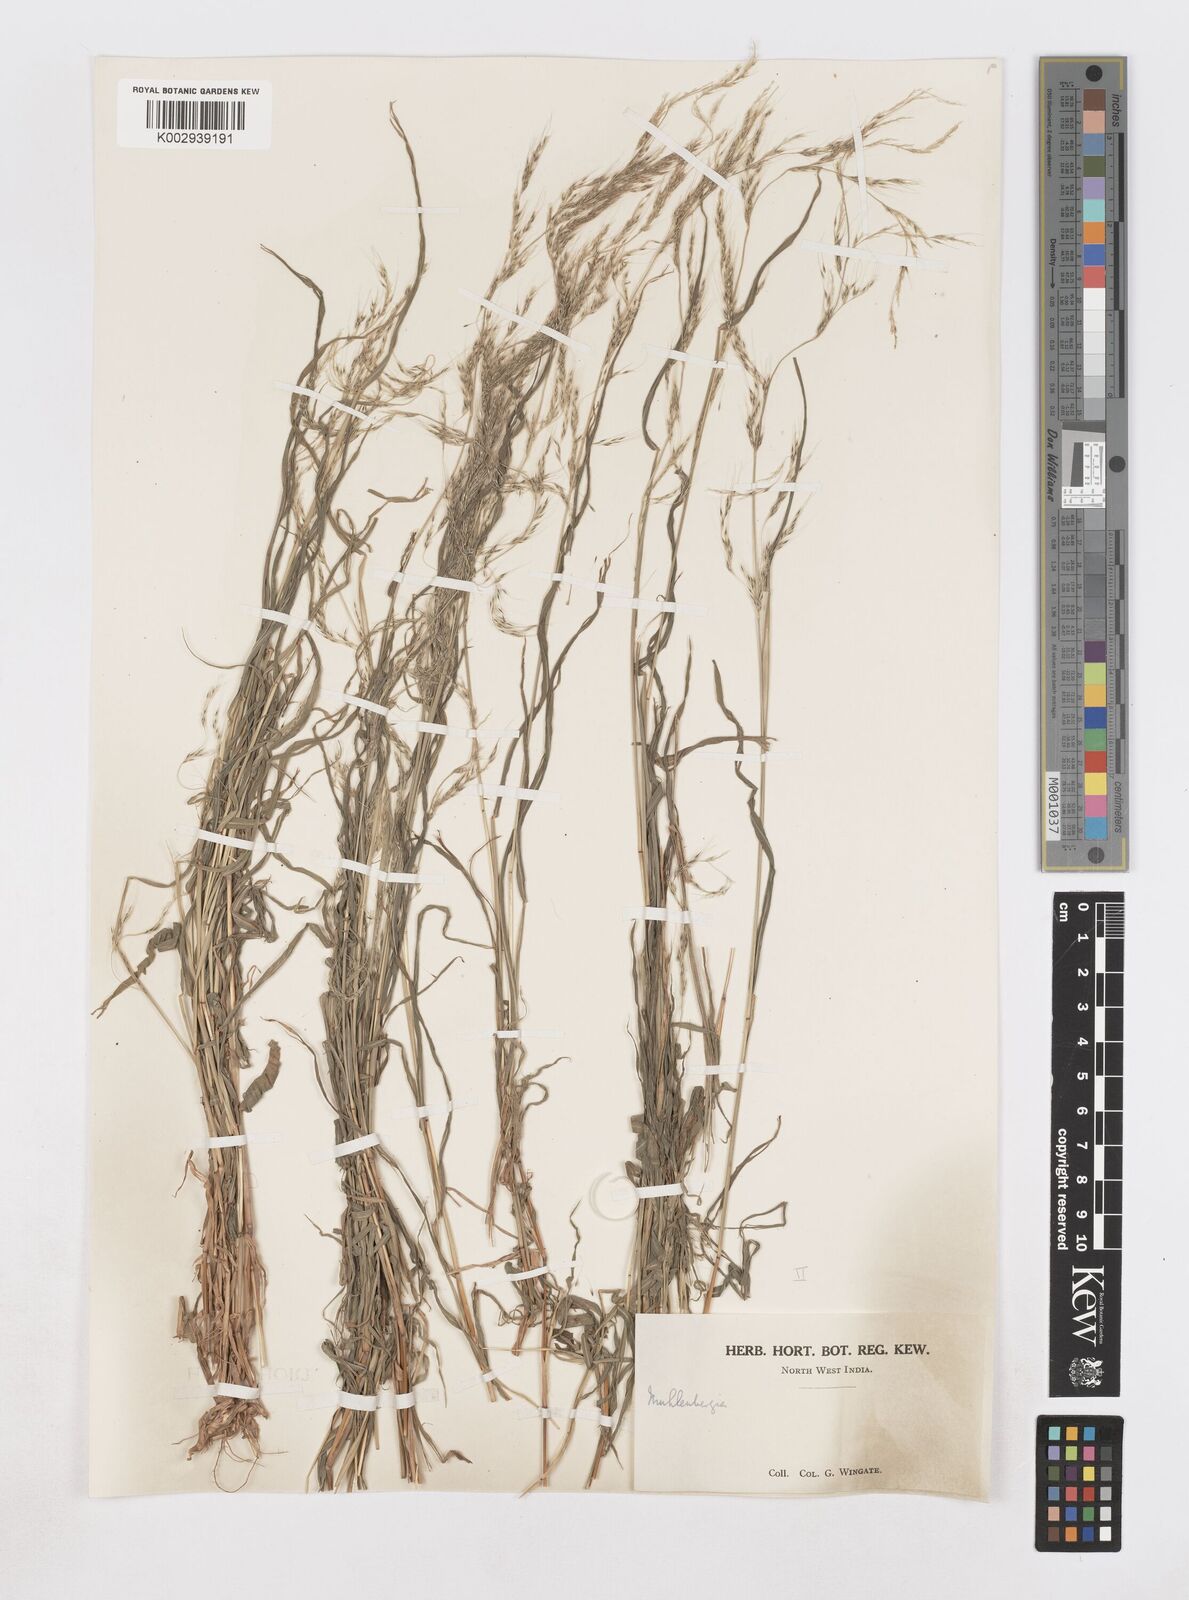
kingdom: Plantae
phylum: Tracheophyta
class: Liliopsida
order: Poales
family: Poaceae
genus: Muhlenbergia
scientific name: Muhlenbergia huegelii
